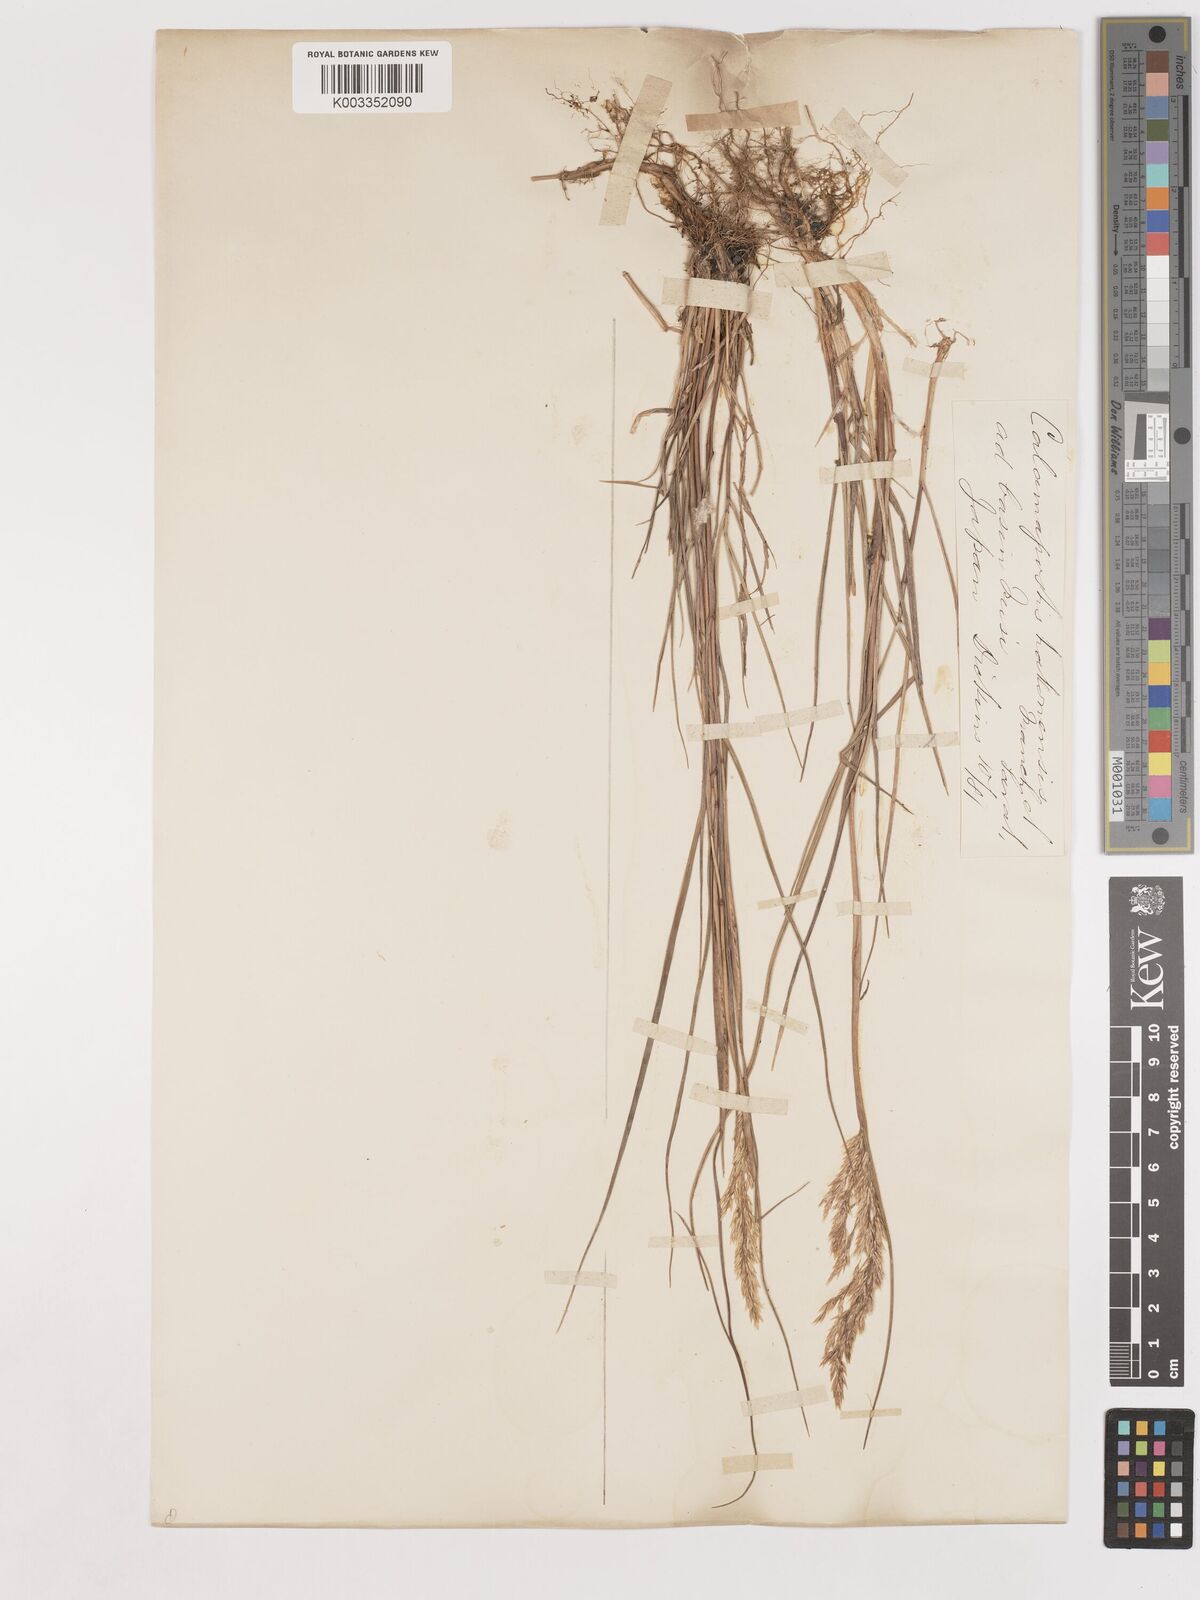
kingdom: Plantae
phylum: Tracheophyta
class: Liliopsida
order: Poales
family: Poaceae
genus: Calamagrostis
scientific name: Calamagrostis hakonensis
